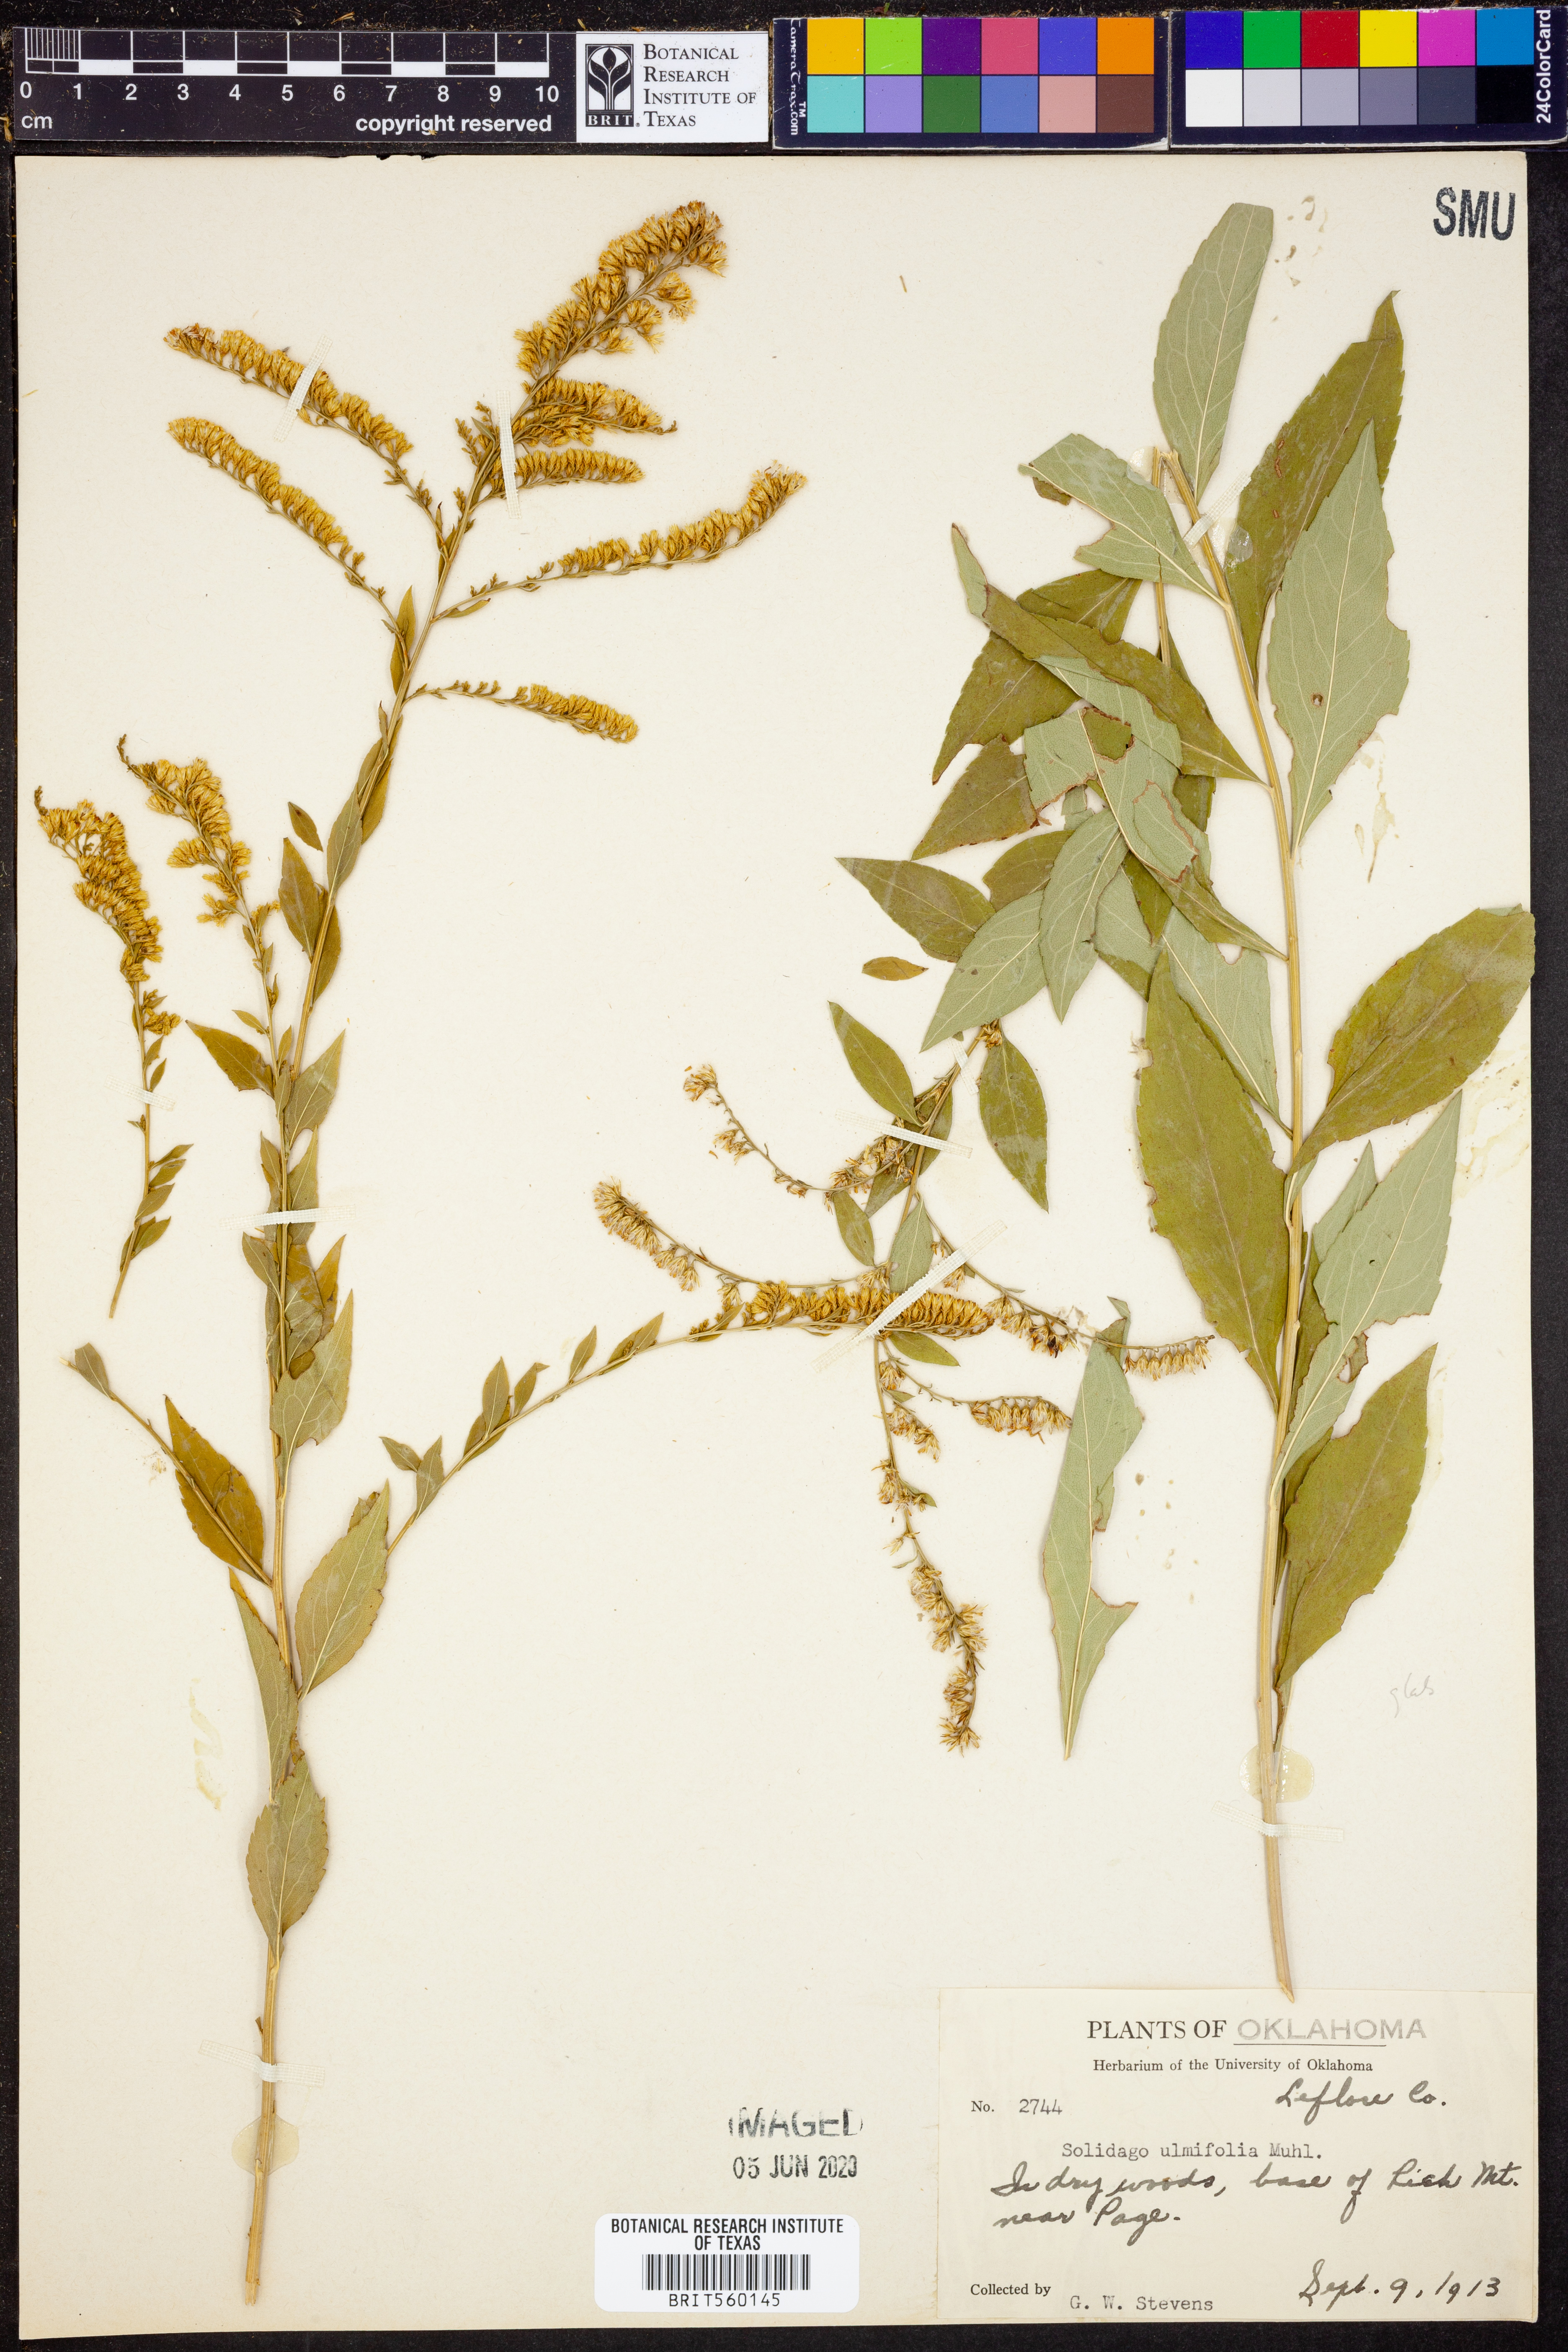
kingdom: Plantae
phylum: Tracheophyta
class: Magnoliopsida
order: Asterales
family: Asteraceae
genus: Solidago
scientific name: Solidago ulmifolia
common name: Elm-leaf goldenrod
